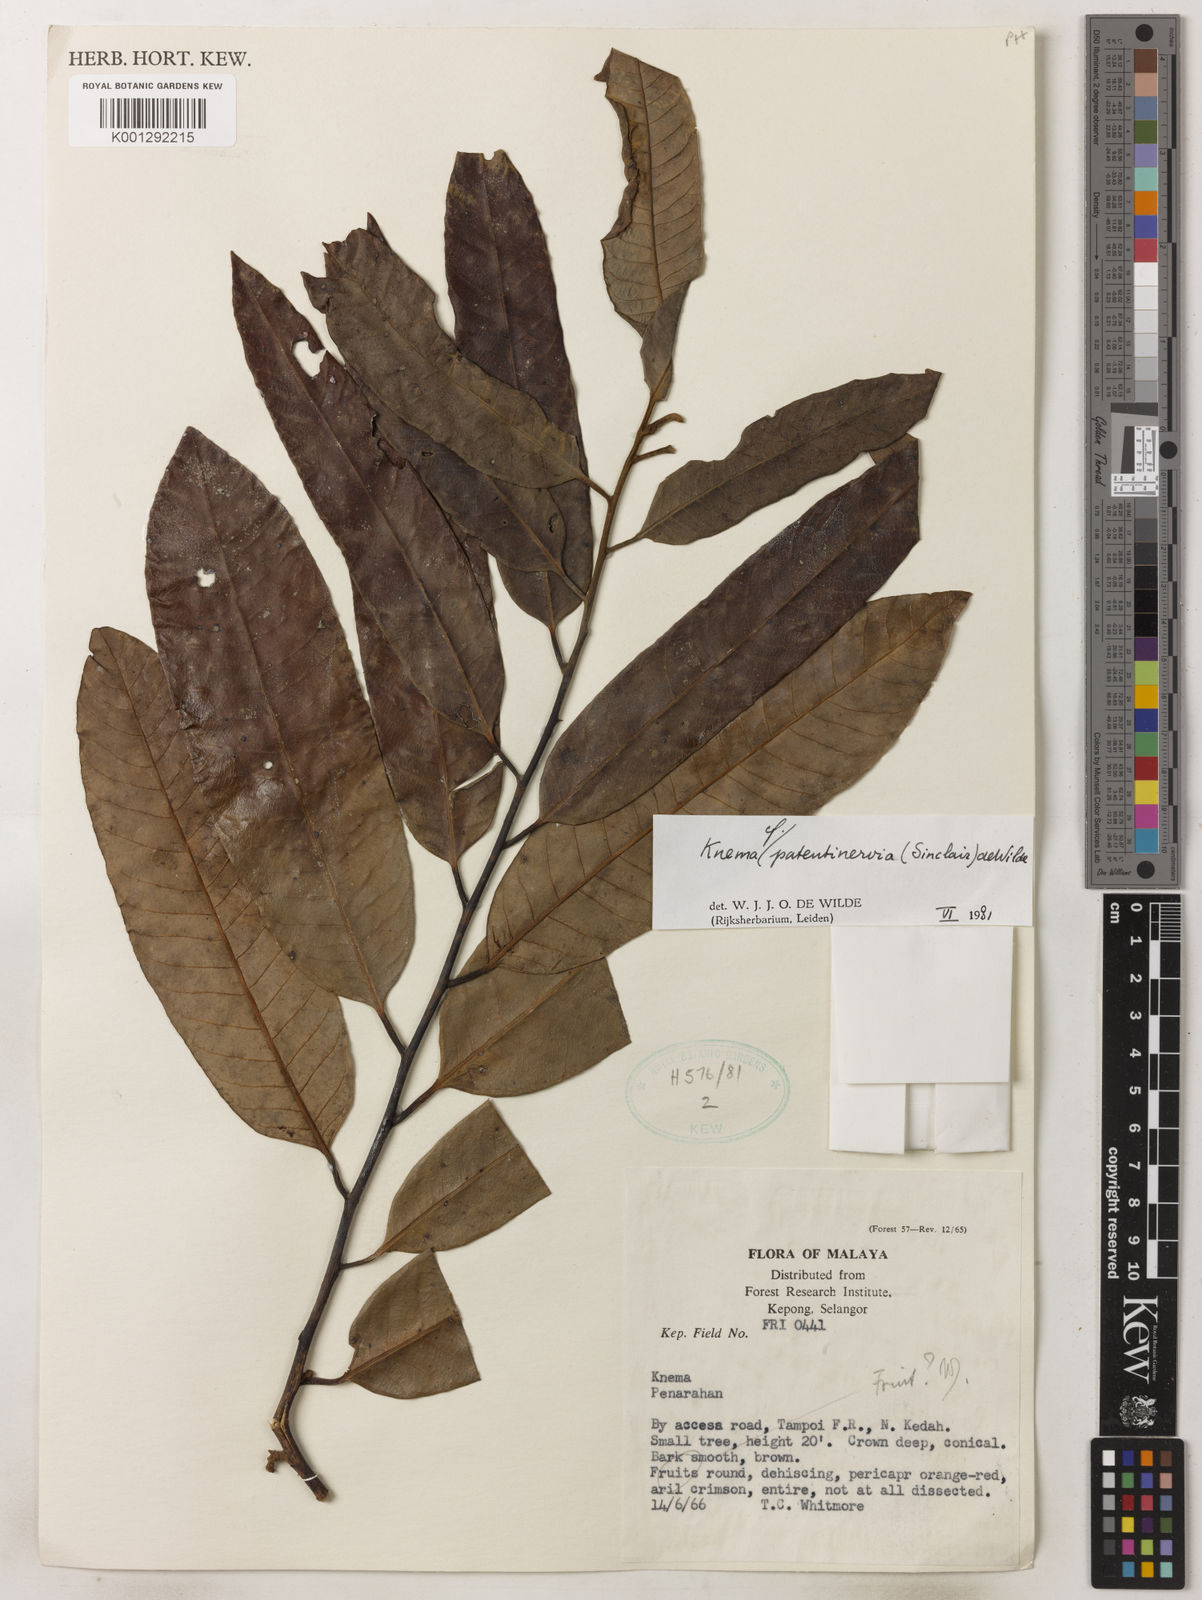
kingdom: Plantae
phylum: Tracheophyta
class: Magnoliopsida
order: Magnoliales
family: Myristicaceae
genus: Knema
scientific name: Knema patentinervia
